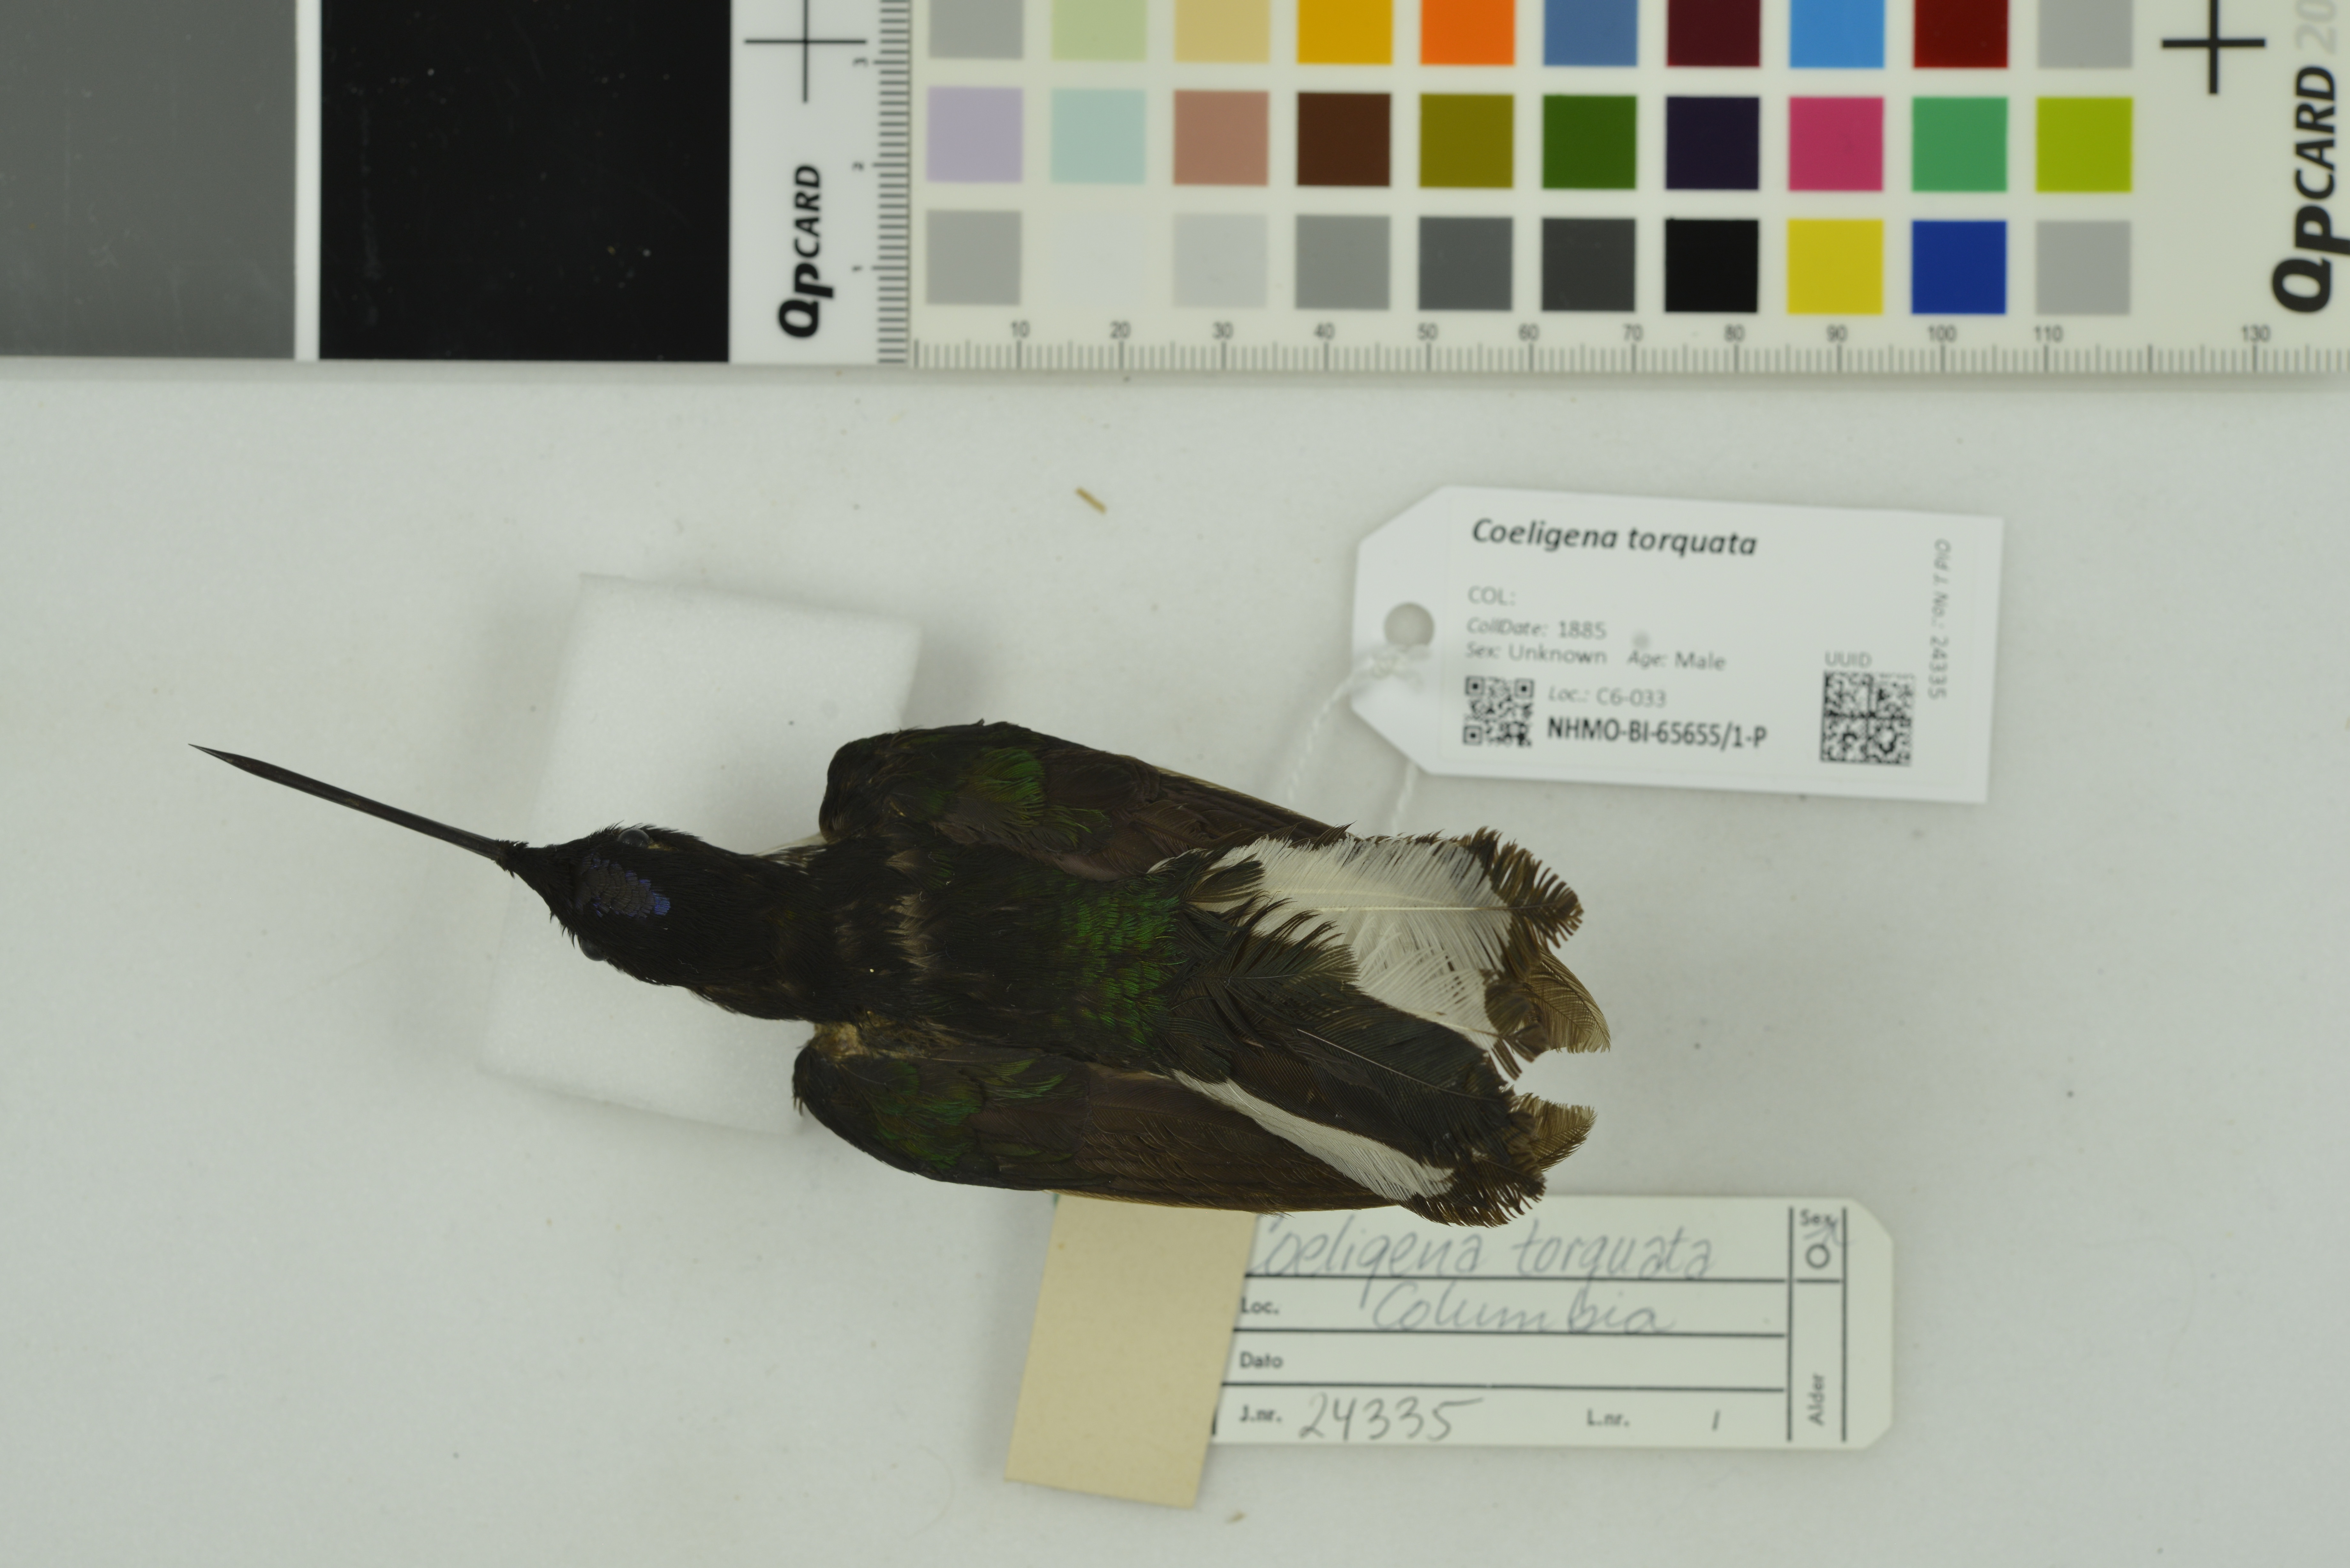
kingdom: Animalia
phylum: Chordata
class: Aves
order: Apodiformes
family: Trochilidae
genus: Coeligena
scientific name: Coeligena torquata
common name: Collared inca
